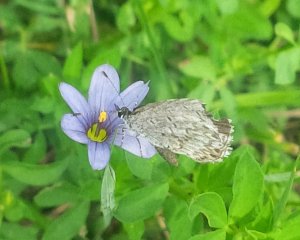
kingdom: Animalia
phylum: Arthropoda
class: Insecta
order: Lepidoptera
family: Lycaenidae
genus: Celastrina
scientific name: Celastrina lucia
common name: Northern Spring Azure
